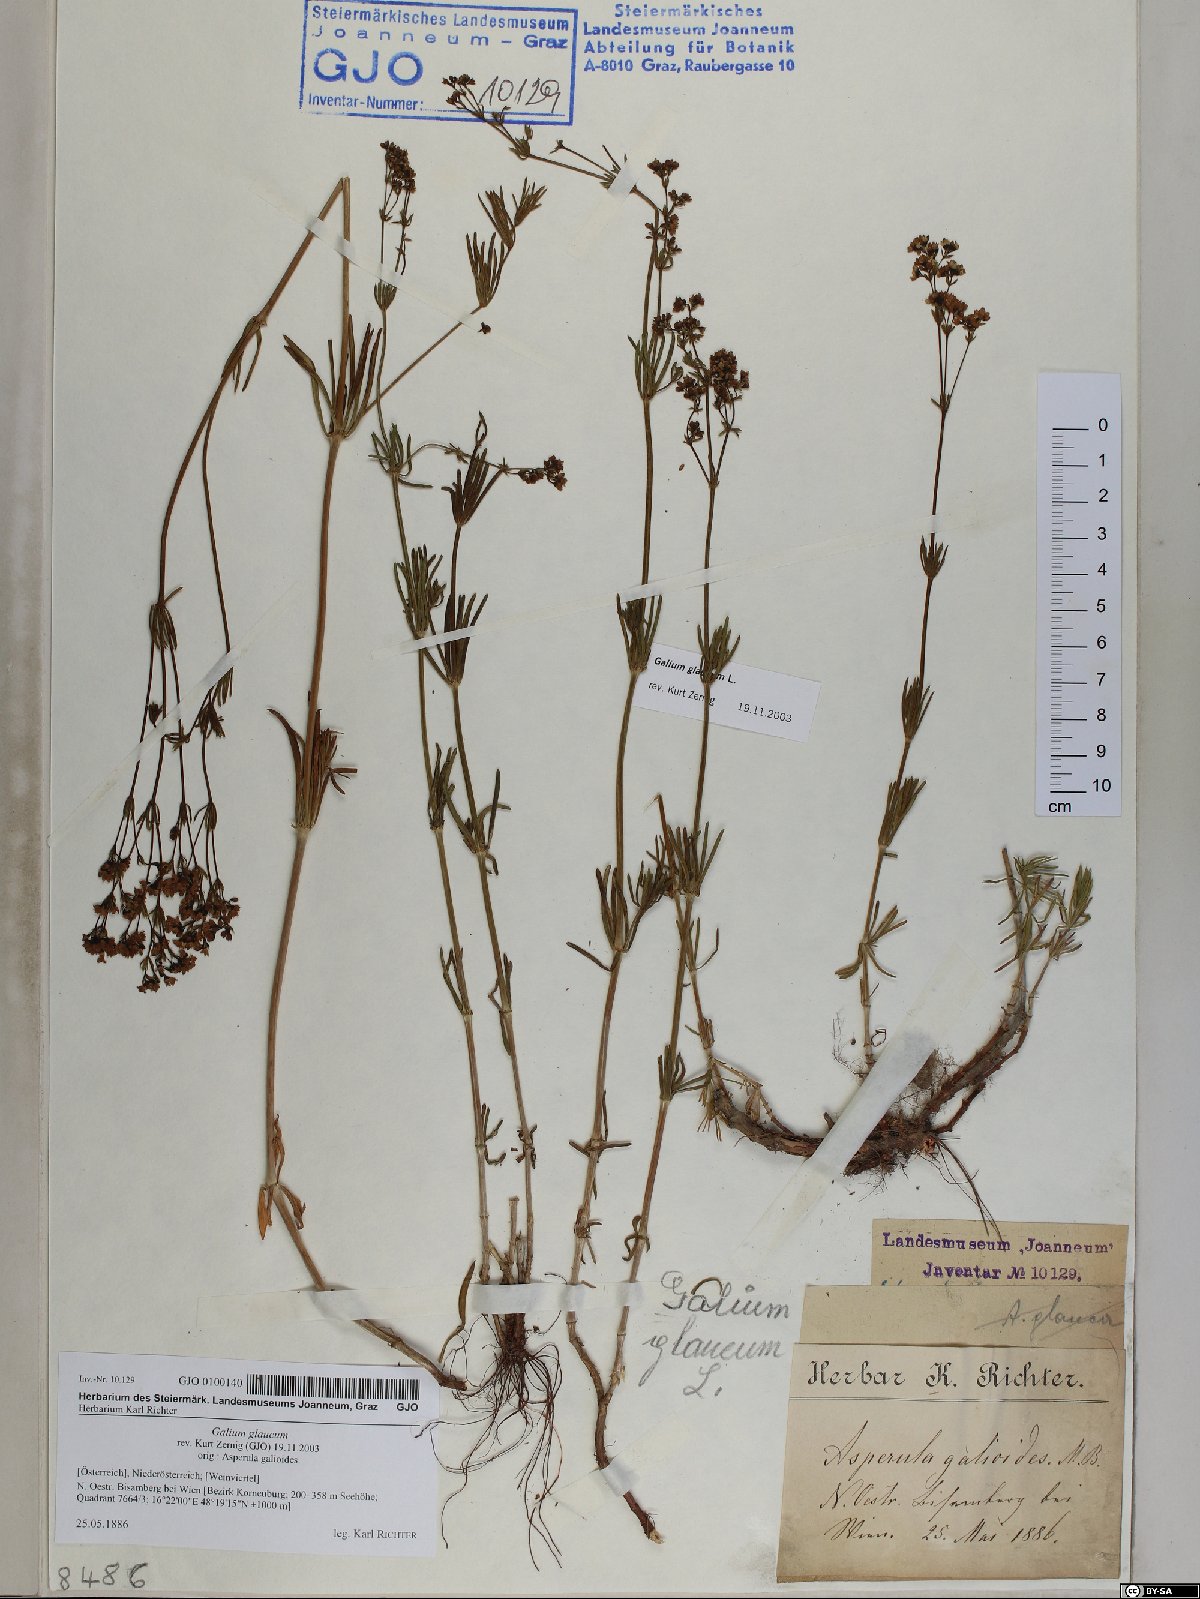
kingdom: Plantae
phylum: Tracheophyta
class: Magnoliopsida
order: Gentianales
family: Rubiaceae
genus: Galium
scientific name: Galium glaucum
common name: Waxy bedstraw
